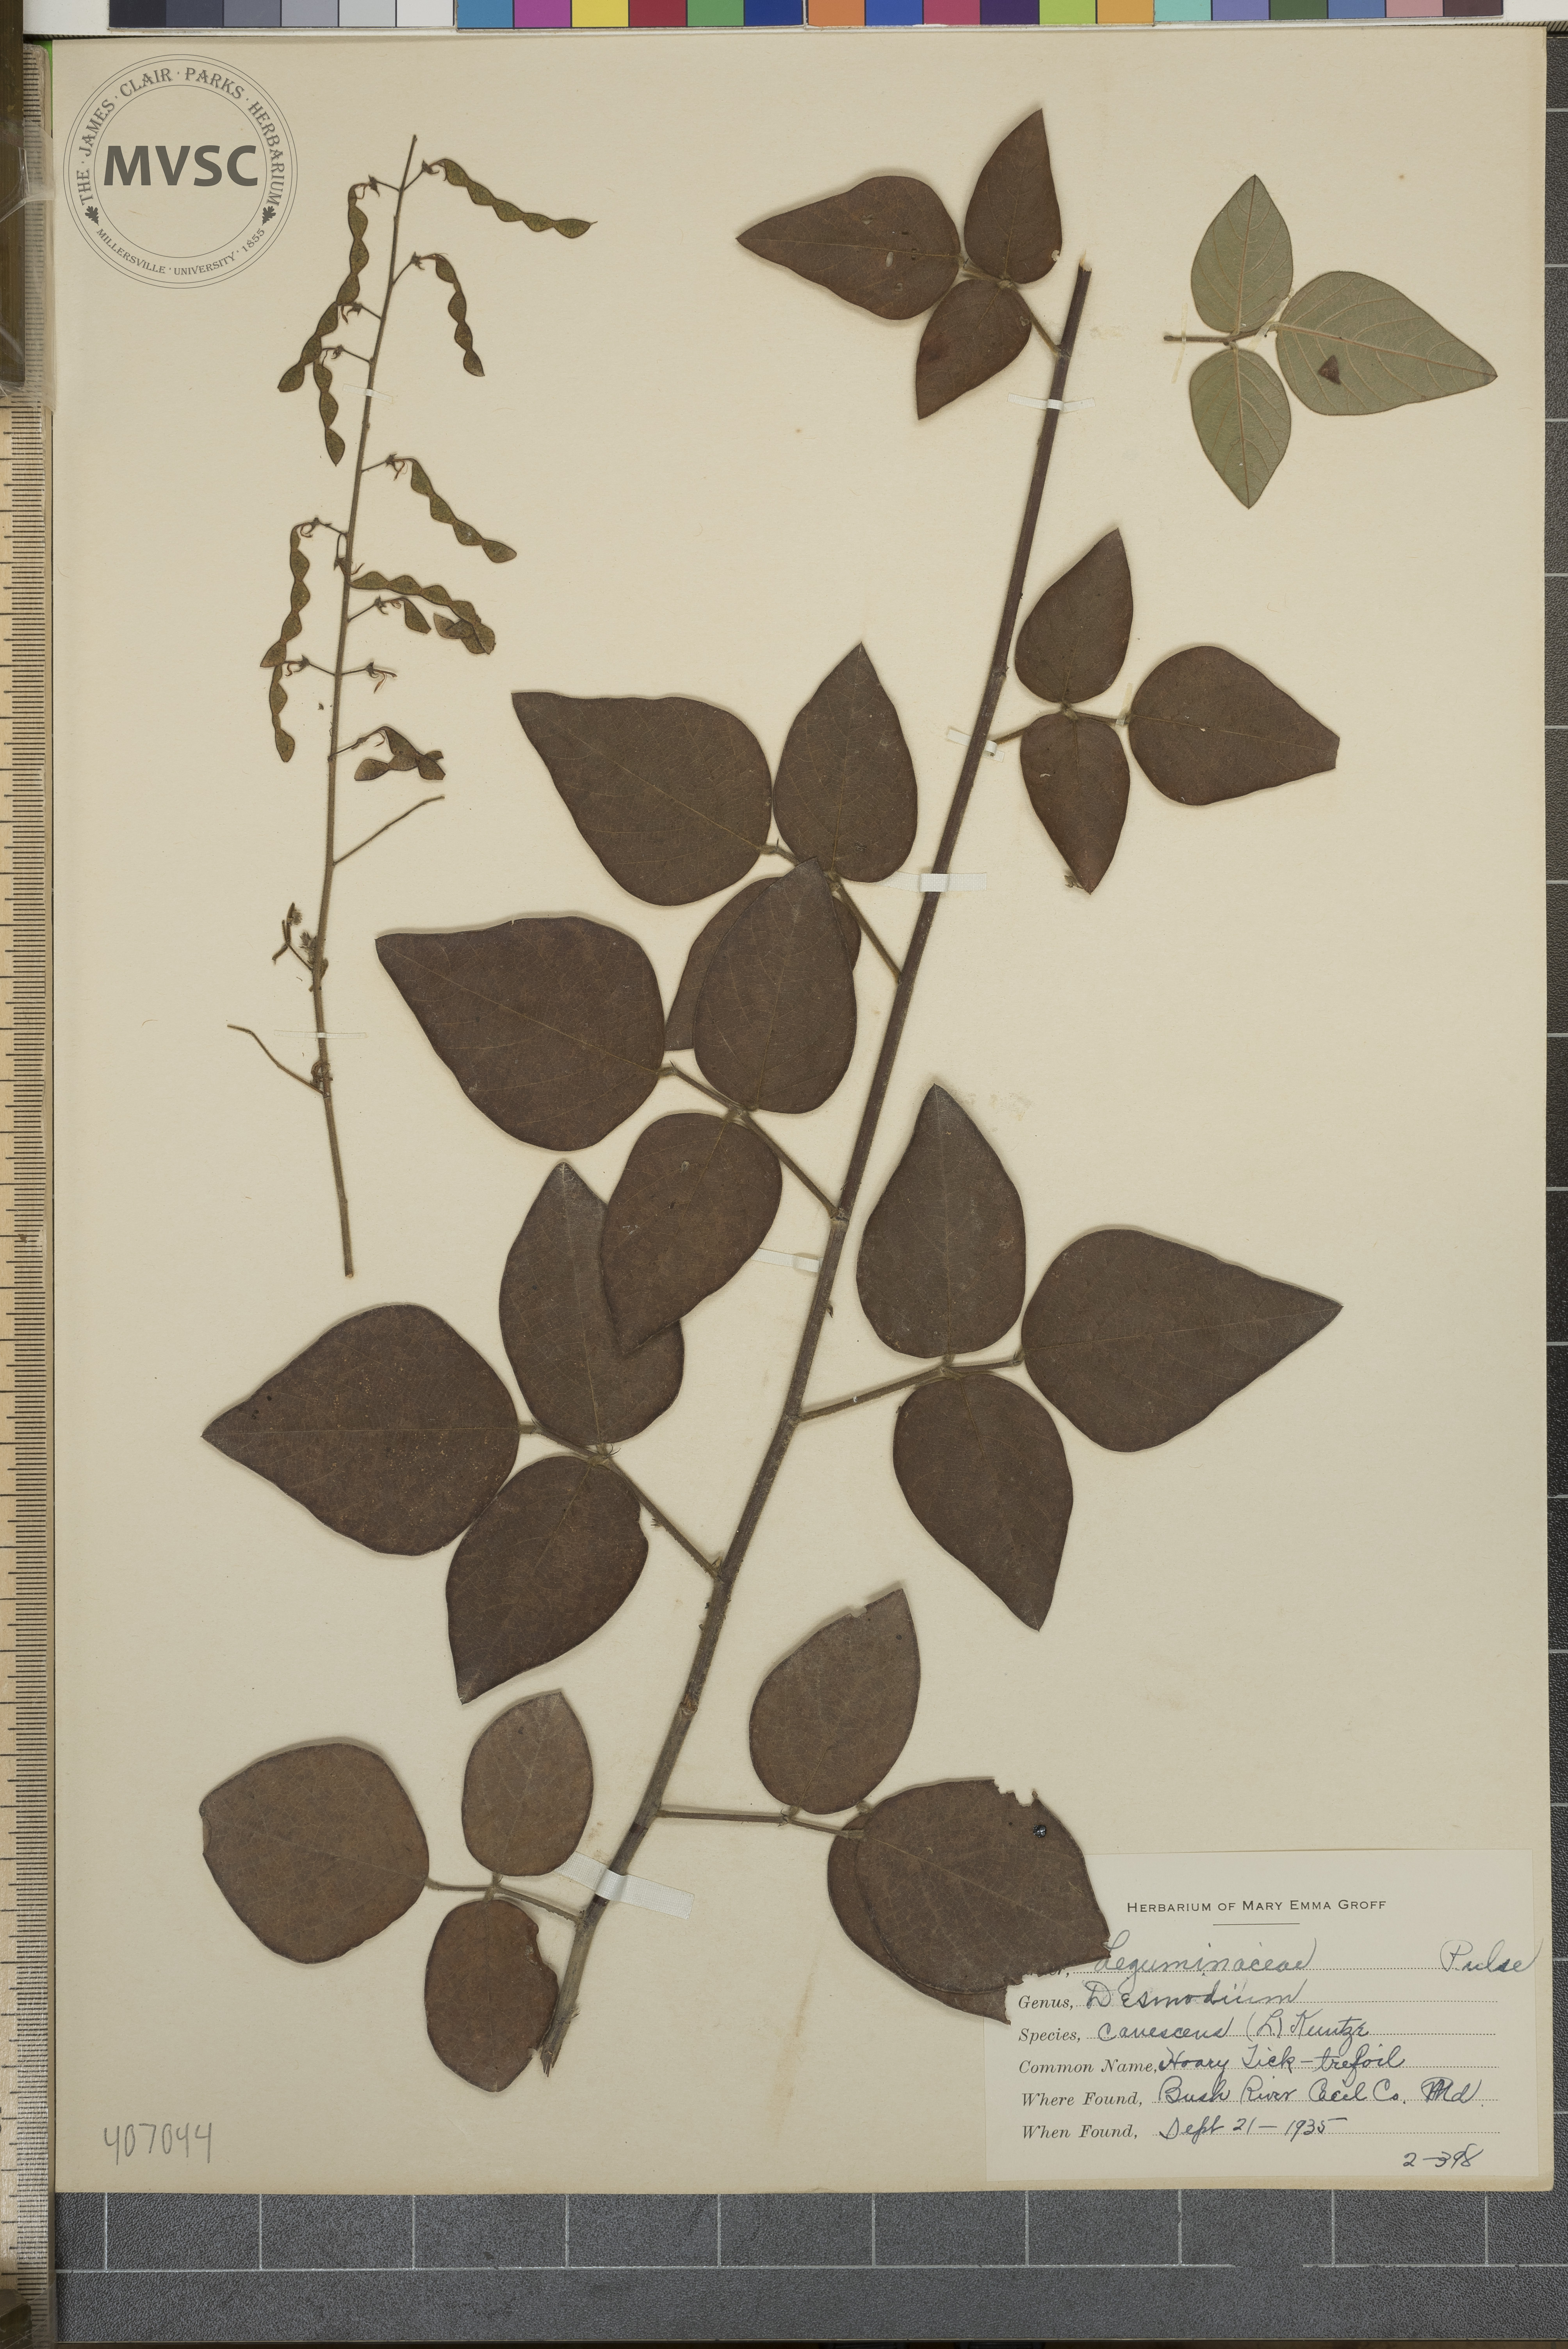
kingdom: Plantae
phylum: Tracheophyta
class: Magnoliopsida
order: Fabales
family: Fabaceae
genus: Desmodium
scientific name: Desmodium canescens
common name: Hoary Tick-trefoil
